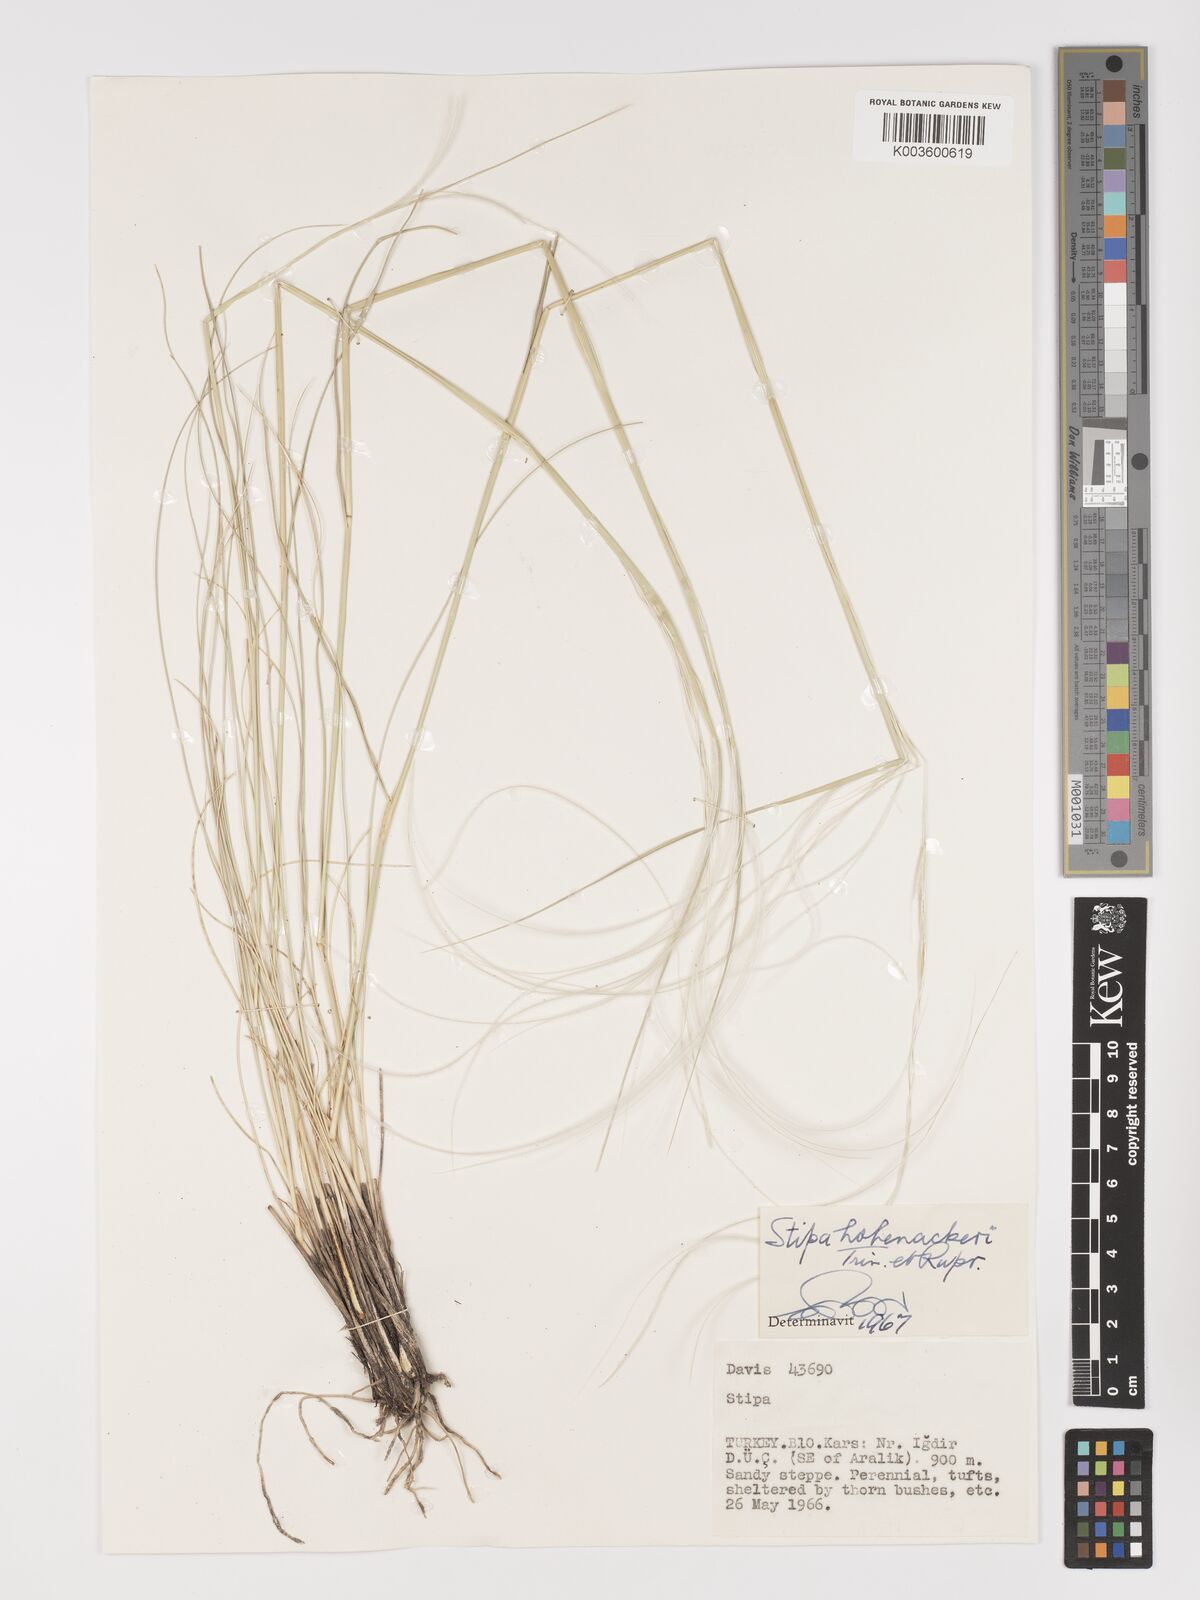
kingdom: Plantae
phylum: Tracheophyta
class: Liliopsida
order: Poales
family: Poaceae
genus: Stipa
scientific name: Stipa hohenackeriana
